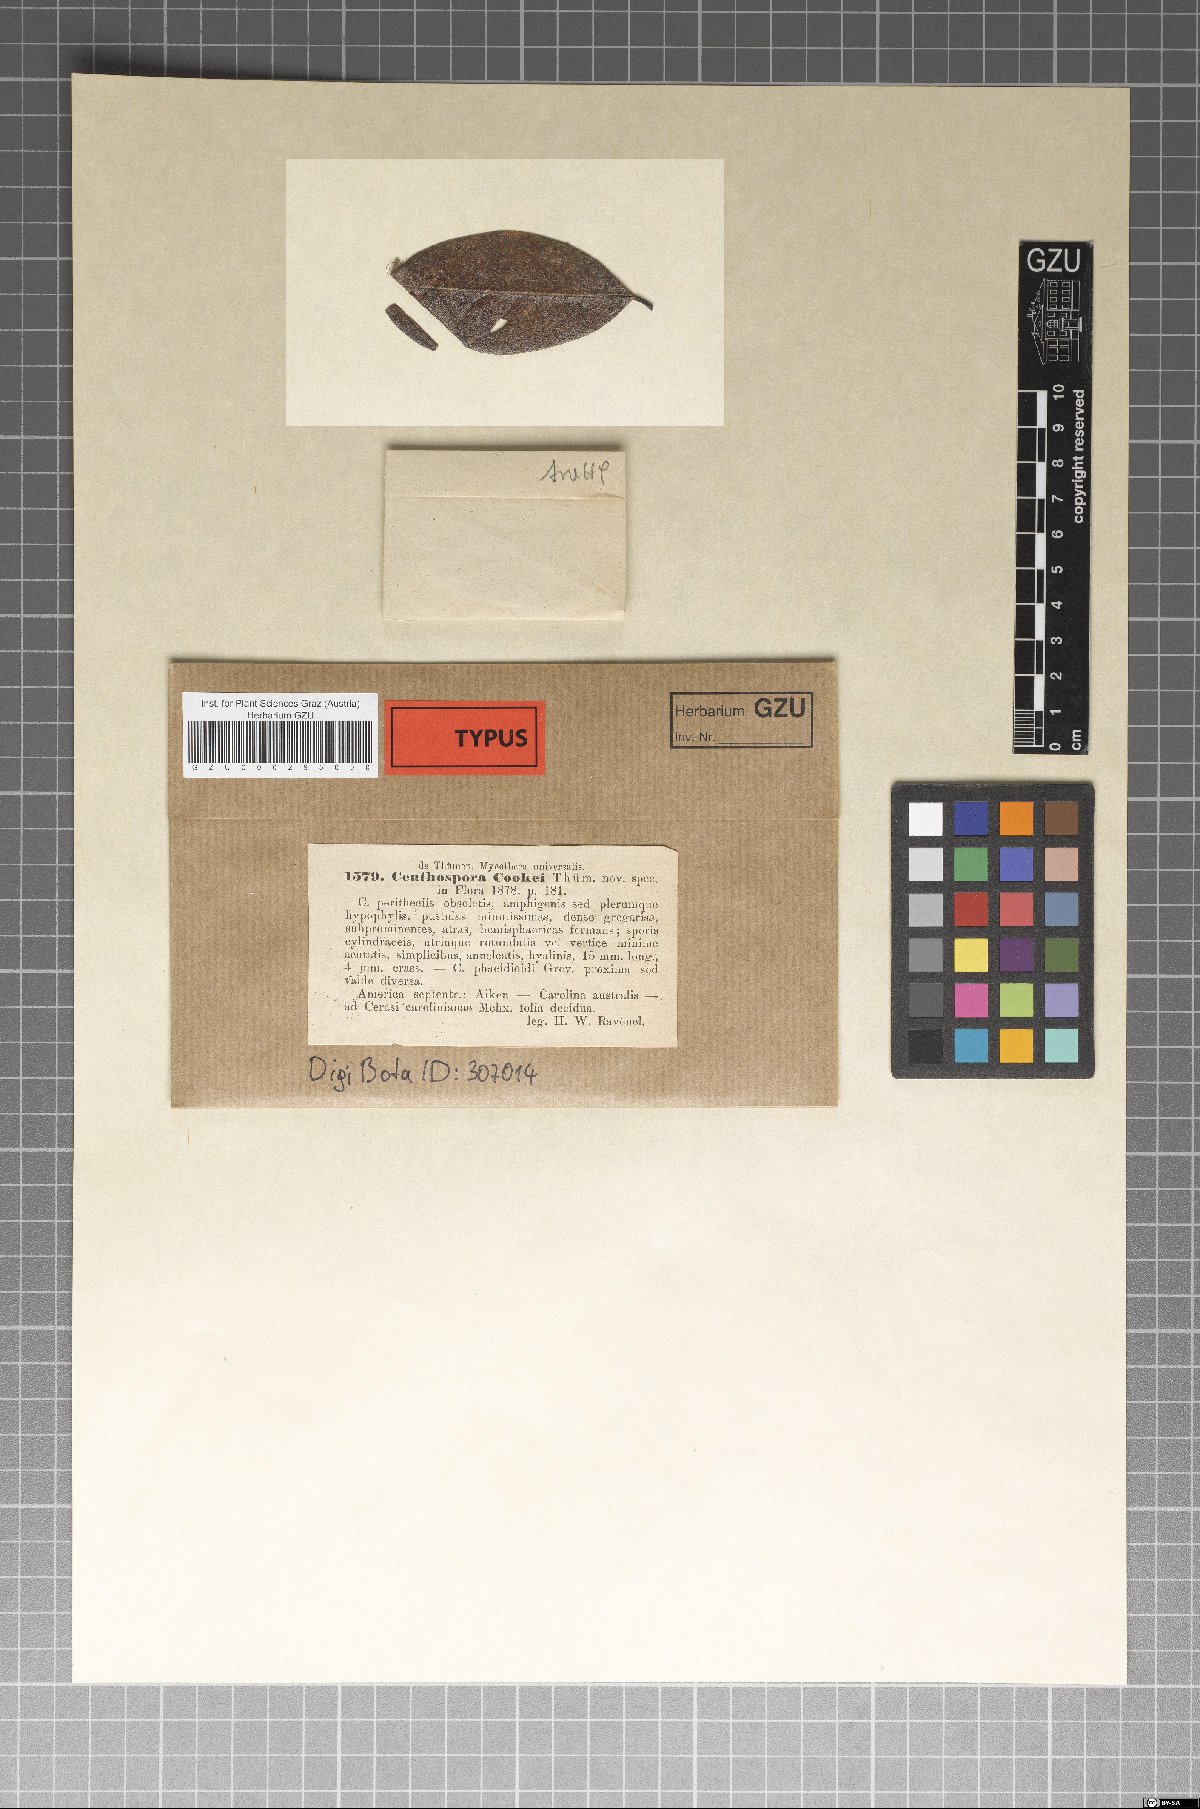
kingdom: Fungi
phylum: Ascomycota
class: Leotiomycetes
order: Phacidiales
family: Phacidiaceae
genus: Ceuthospora
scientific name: Ceuthospora
